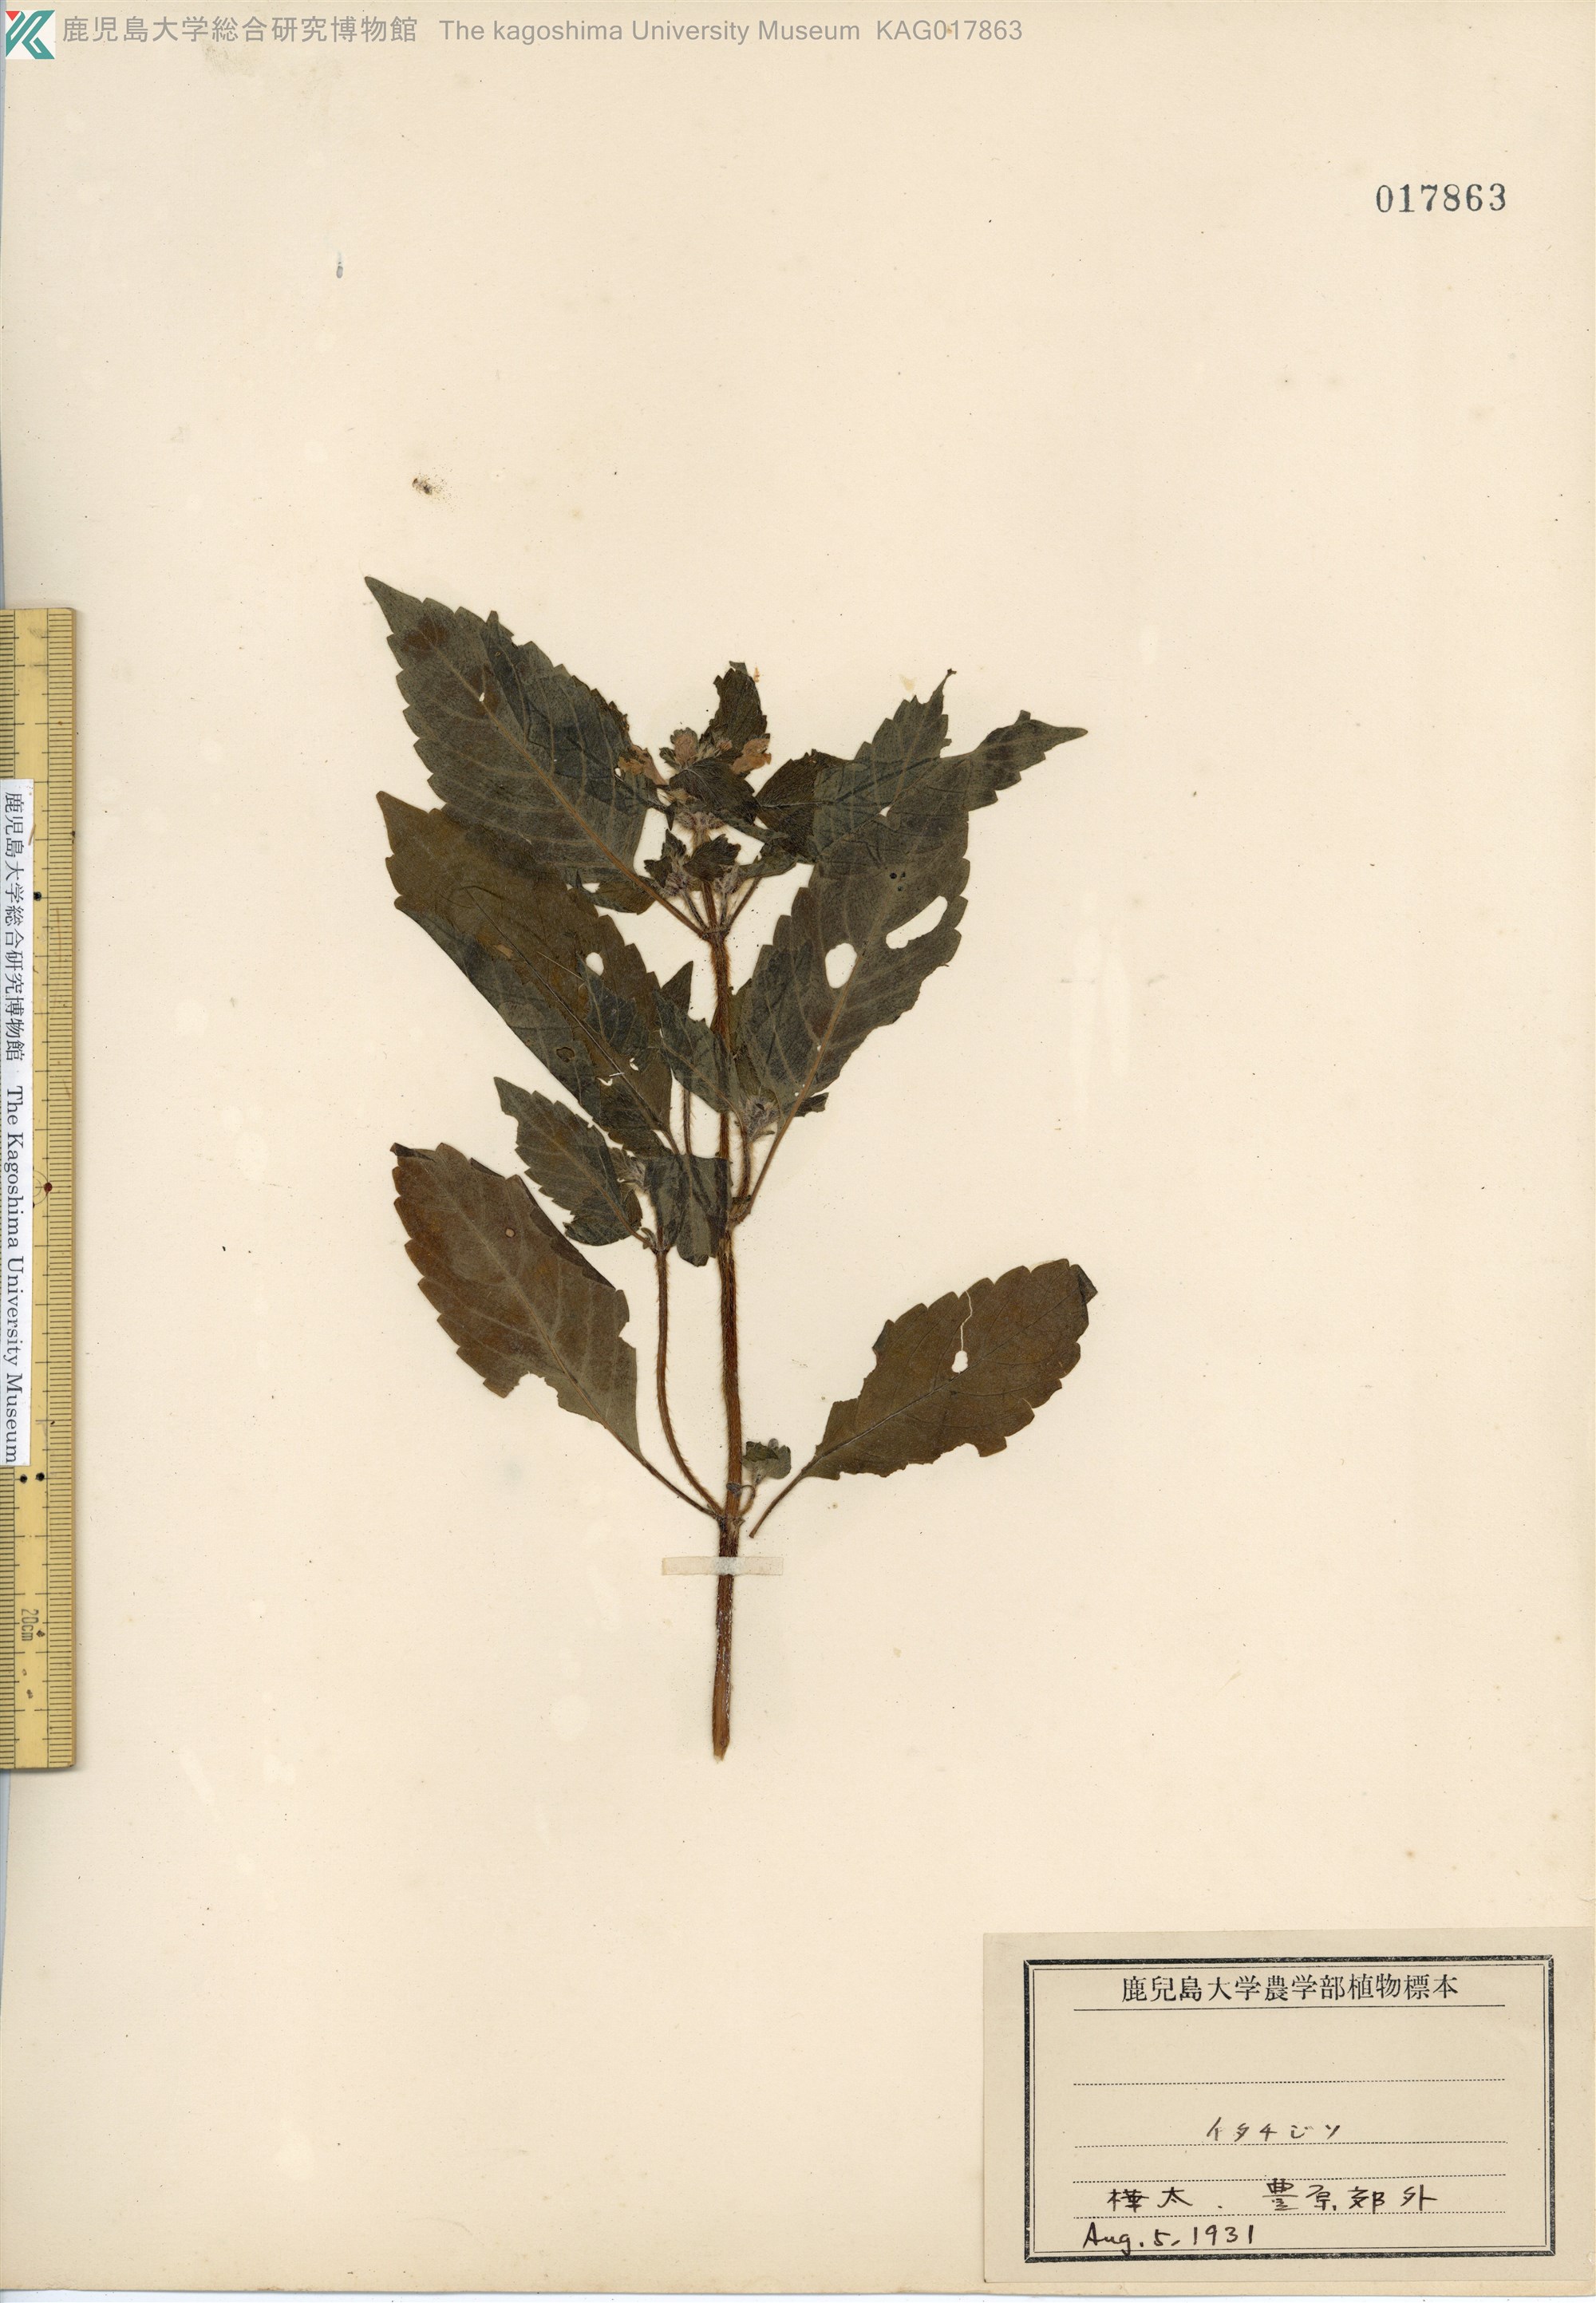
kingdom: Plantae
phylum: Tracheophyta
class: Magnoliopsida
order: Lamiales
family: Lamiaceae
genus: Galeopsis
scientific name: Galeopsis bifida
